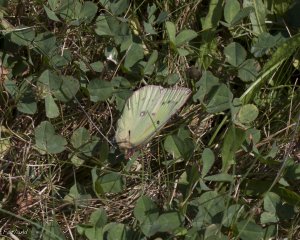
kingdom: Animalia
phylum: Arthropoda
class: Insecta
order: Lepidoptera
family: Pieridae
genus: Colias
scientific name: Colias philodice
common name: Clouded Sulphur
